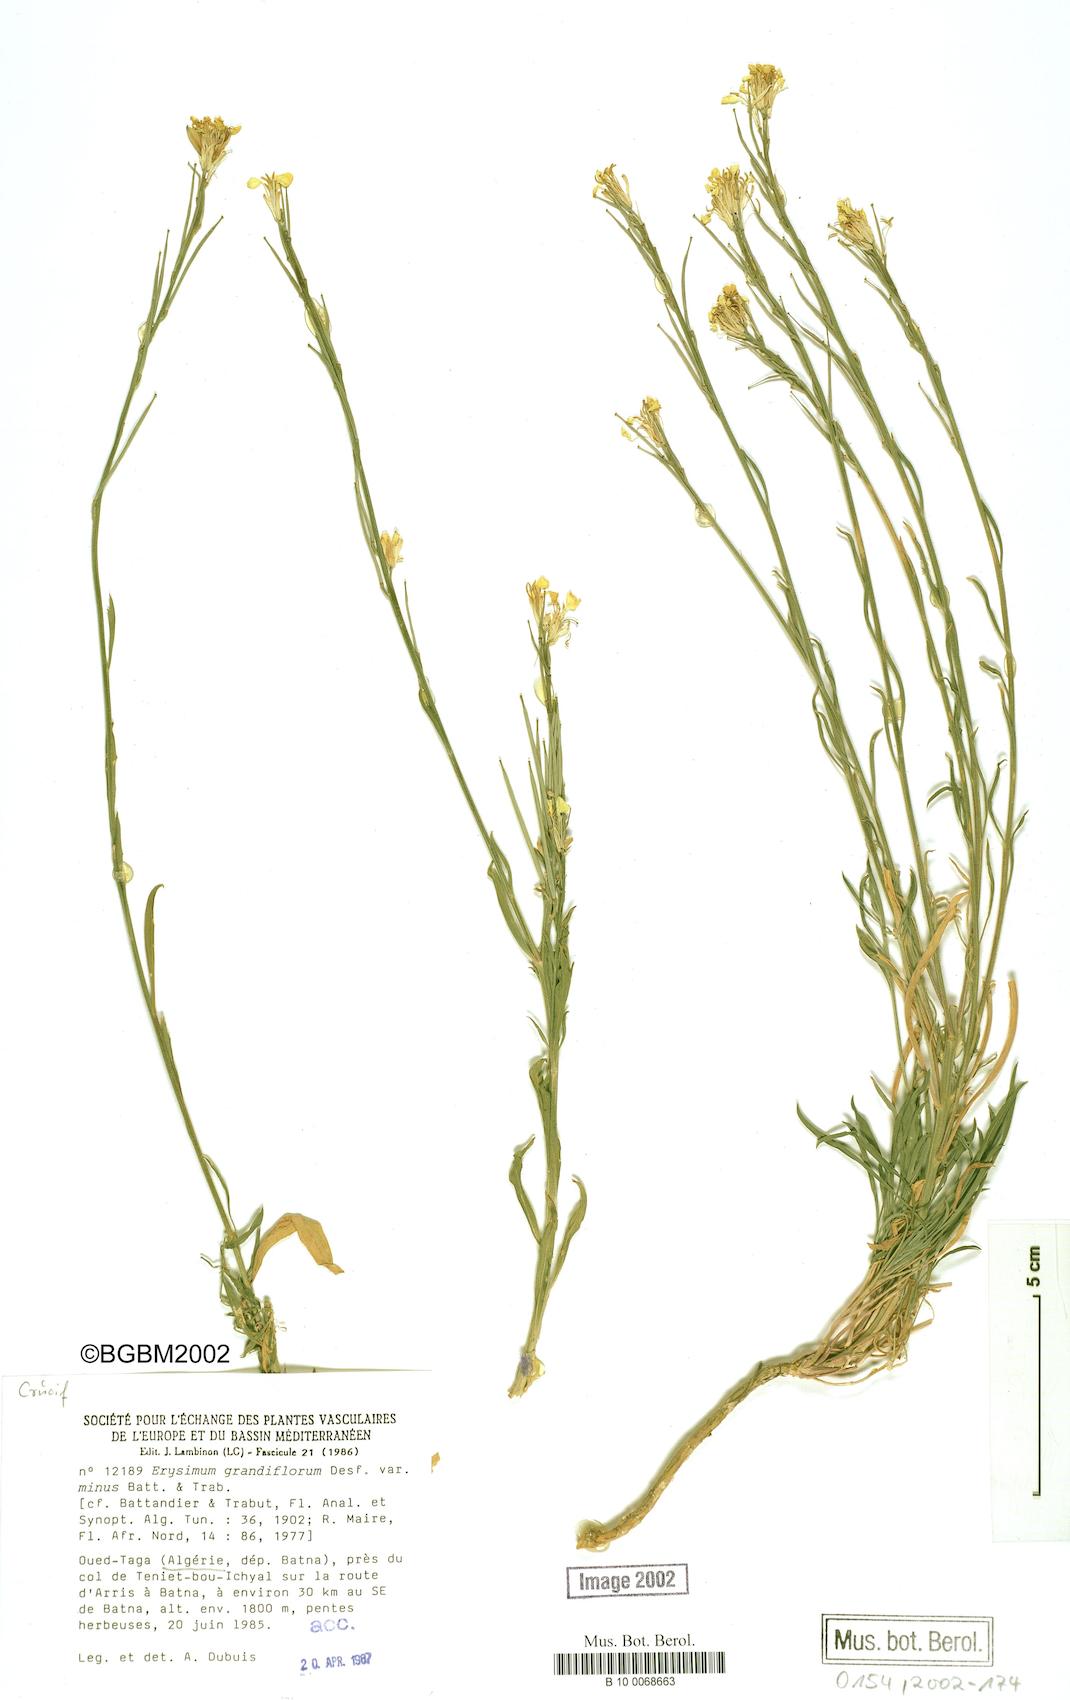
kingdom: Plantae
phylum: Tracheophyta
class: Magnoliopsida
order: Brassicales
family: Brassicaceae
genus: Erysimum
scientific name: Erysimum nevadense
